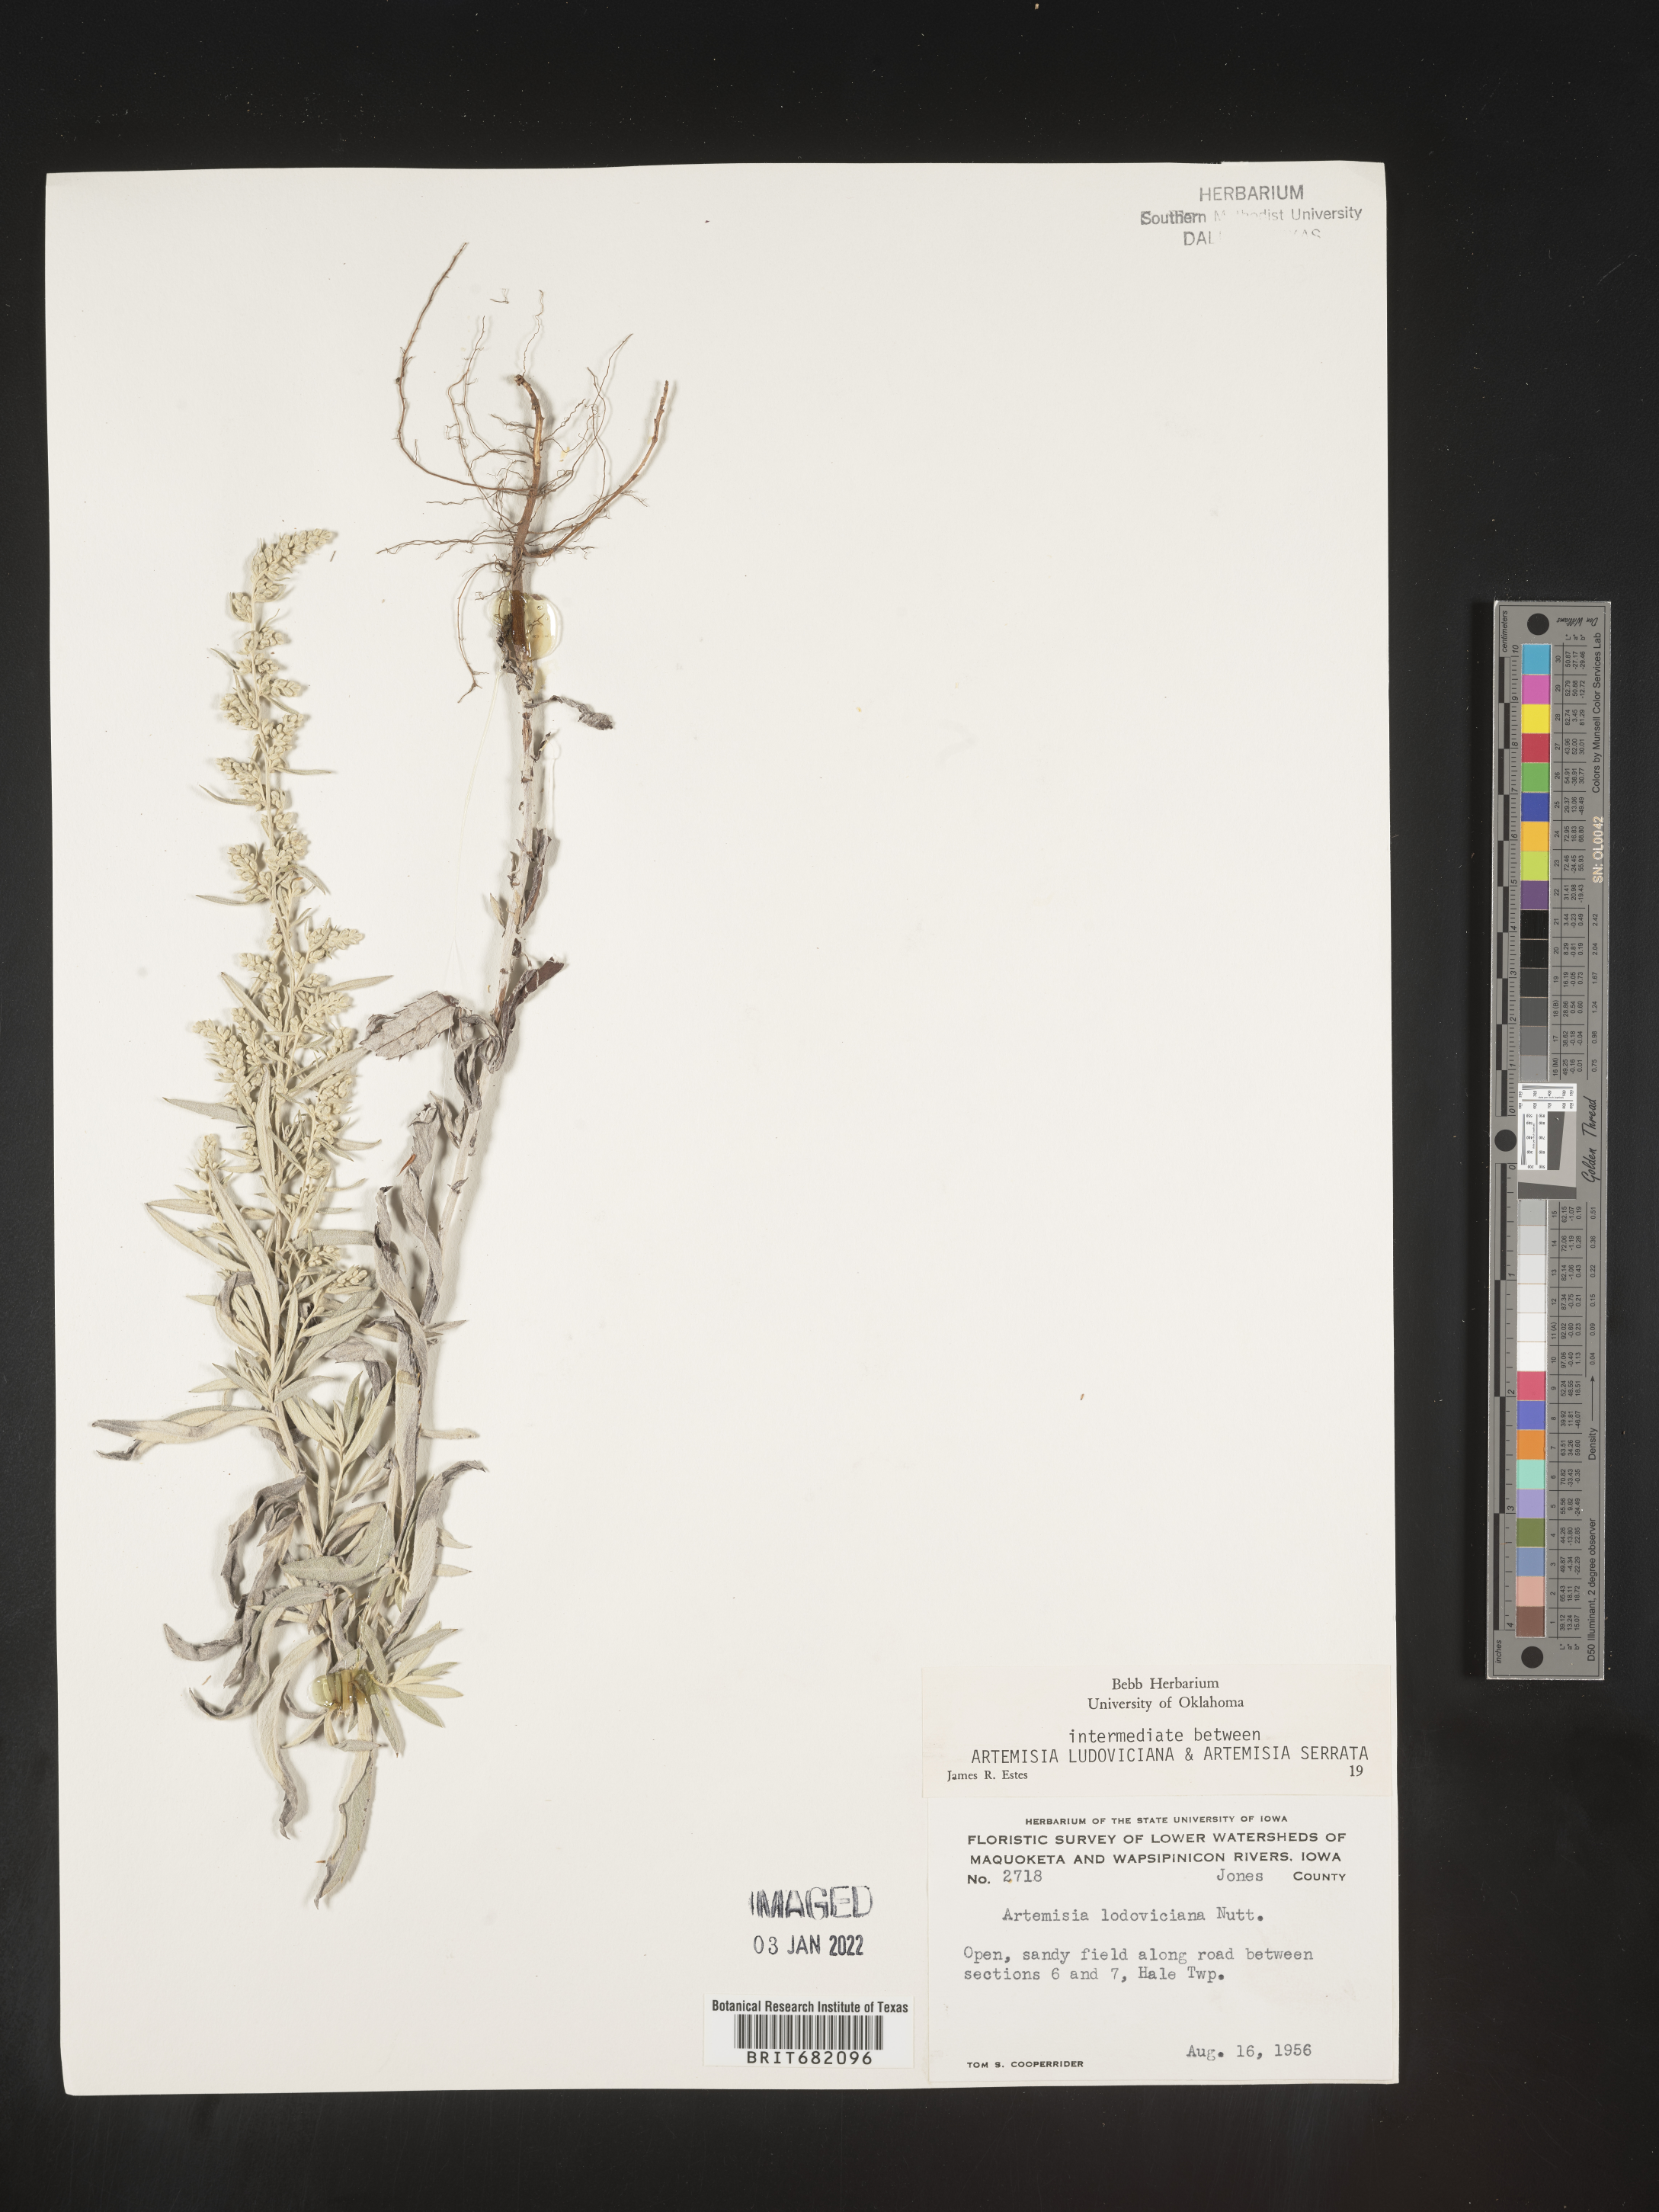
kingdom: Plantae
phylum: Tracheophyta
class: Magnoliopsida
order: Asterales
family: Asteraceae
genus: Artemisia
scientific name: Artemisia ludoviciana
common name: Western mugwort
